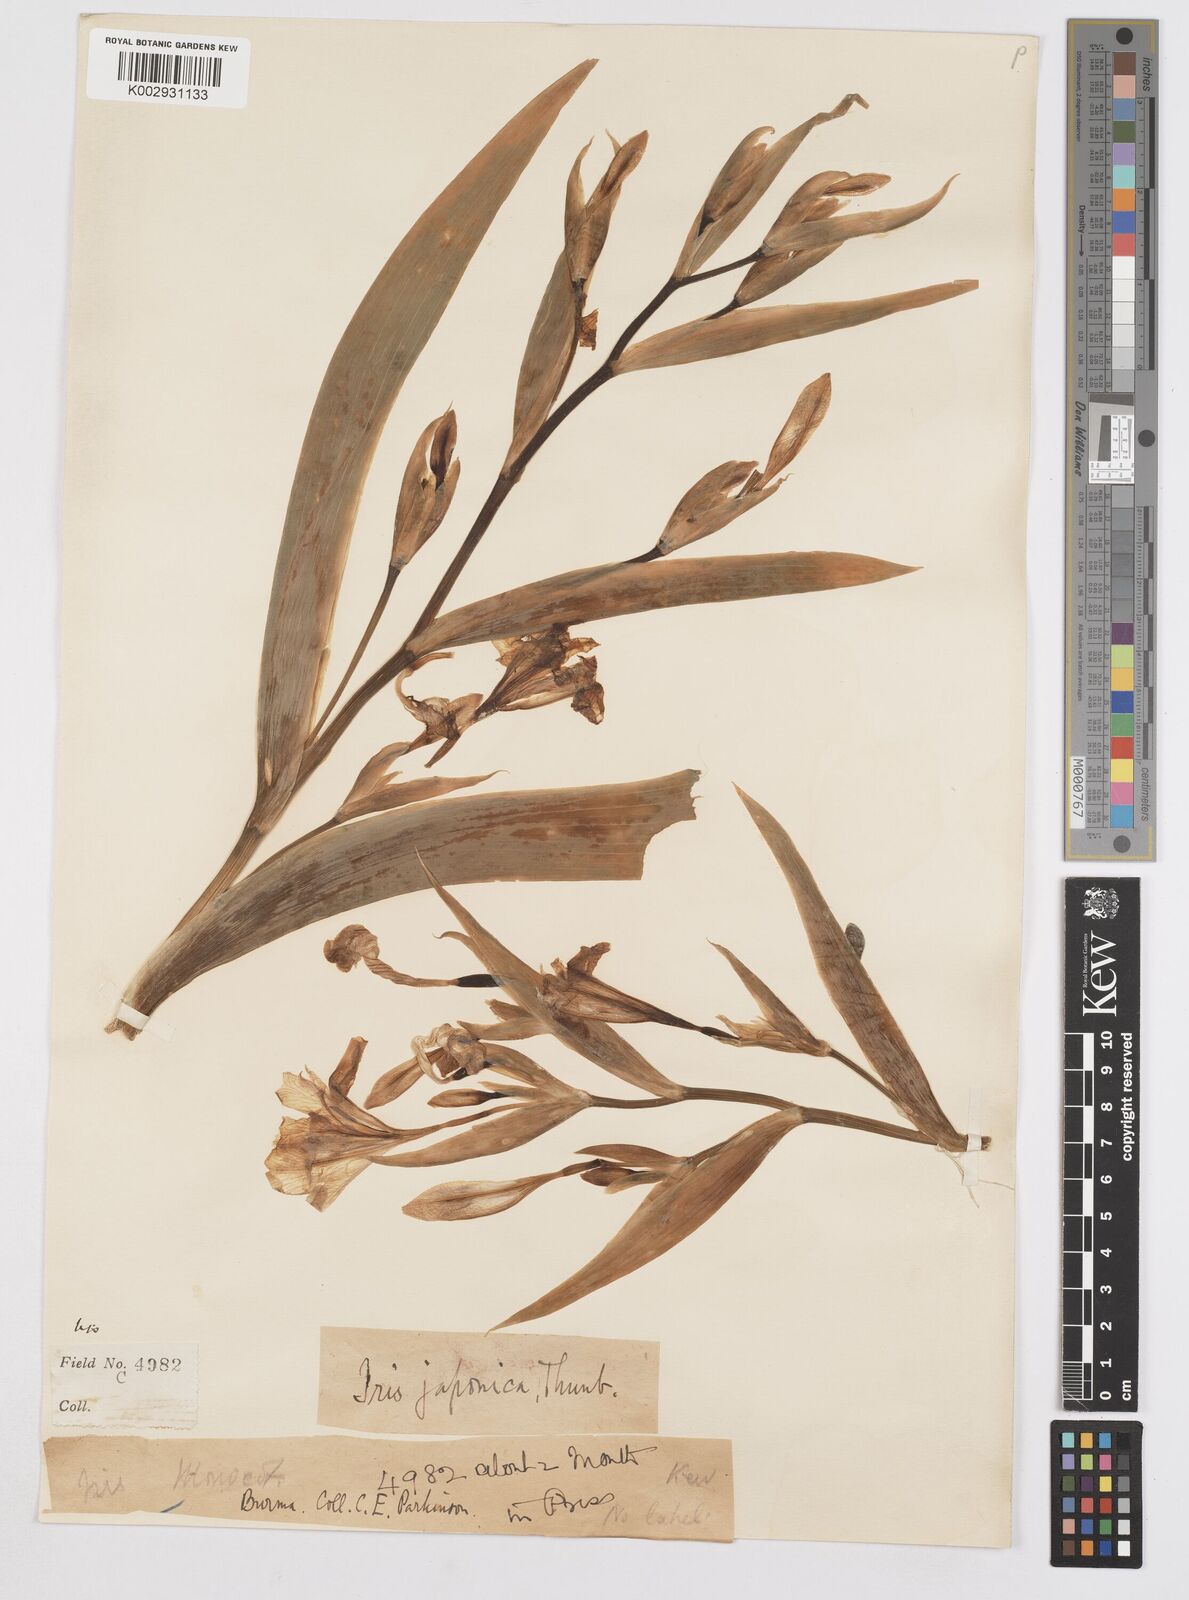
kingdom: Plantae
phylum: Tracheophyta
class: Liliopsida
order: Asparagales
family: Iridaceae
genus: Iris
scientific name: Iris japonica
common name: Butterfly-flower
